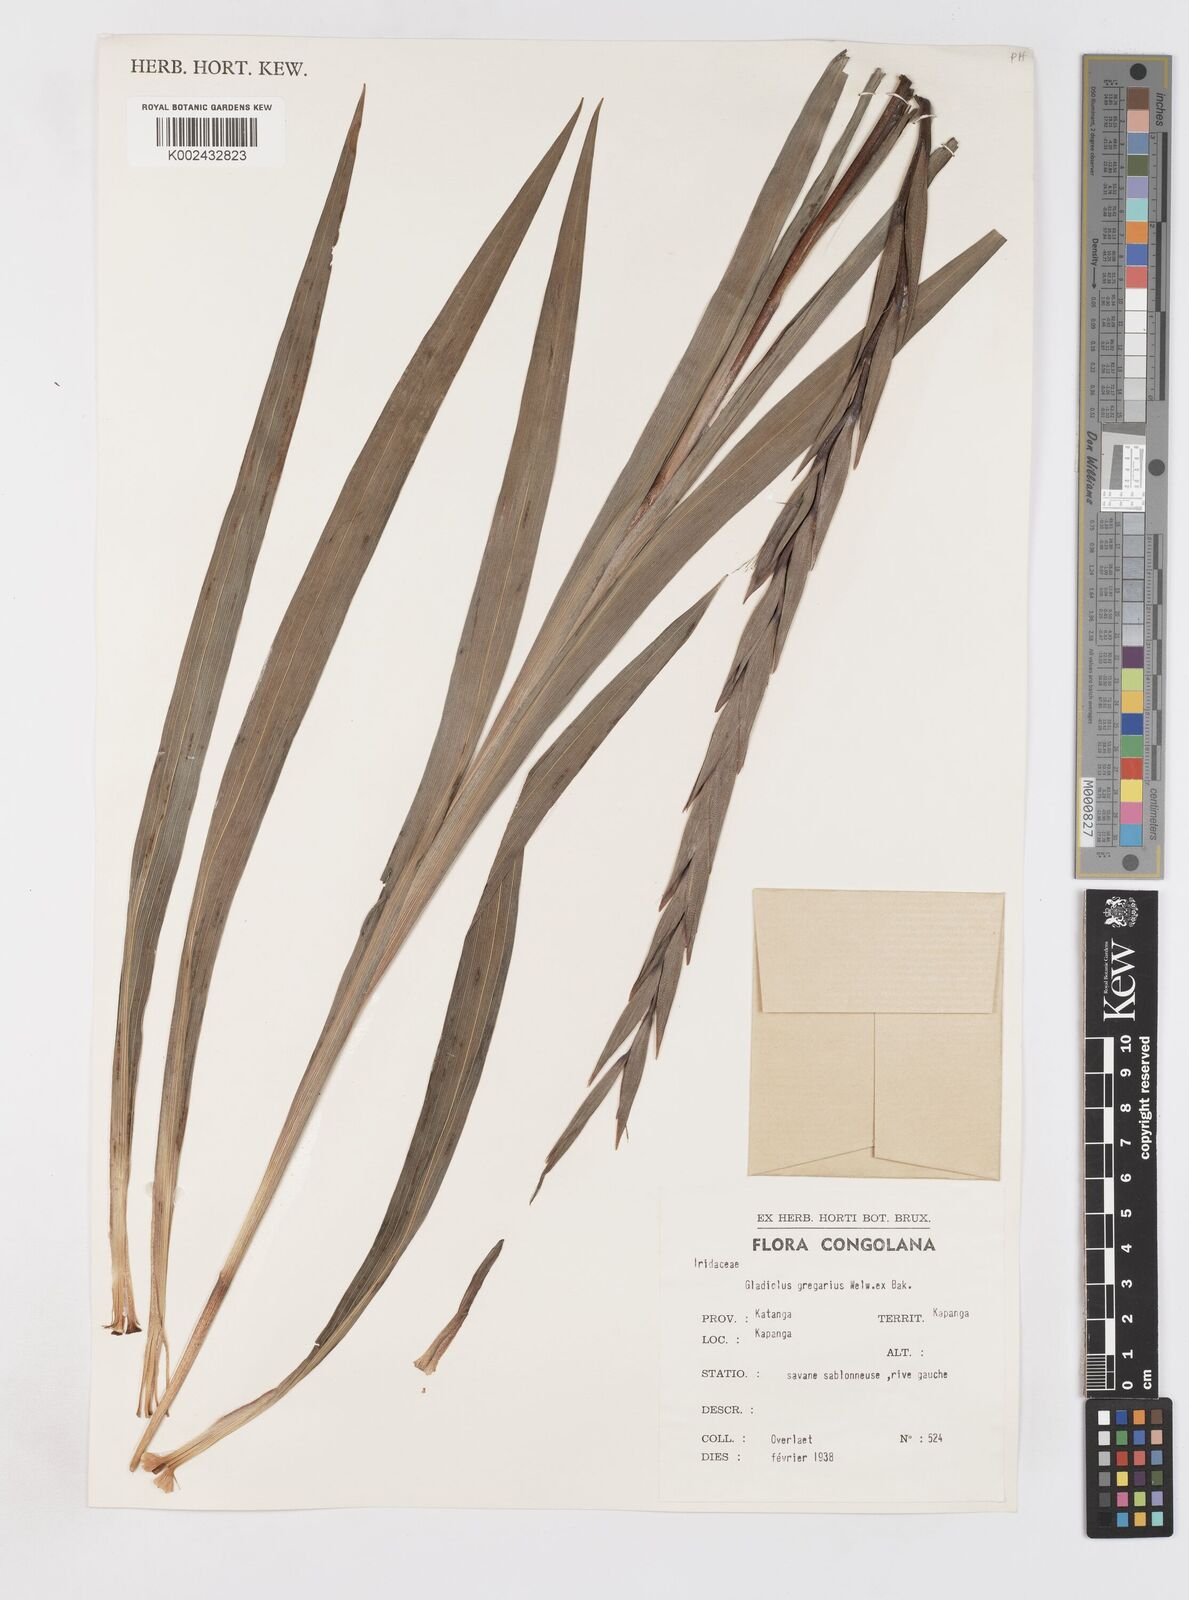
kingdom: Plantae
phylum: Tracheophyta
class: Liliopsida
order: Asparagales
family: Iridaceae
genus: Gladiolus
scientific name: Gladiolus gregarius
